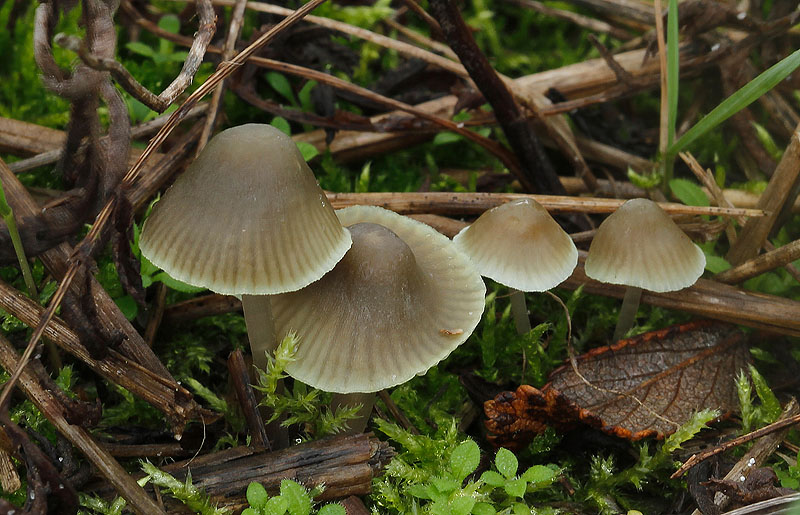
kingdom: Fungi
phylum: Basidiomycota
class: Agaricomycetes
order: Agaricales
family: Mycenaceae
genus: Mycena
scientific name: Mycena chlorantha
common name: klit-huesvamp
